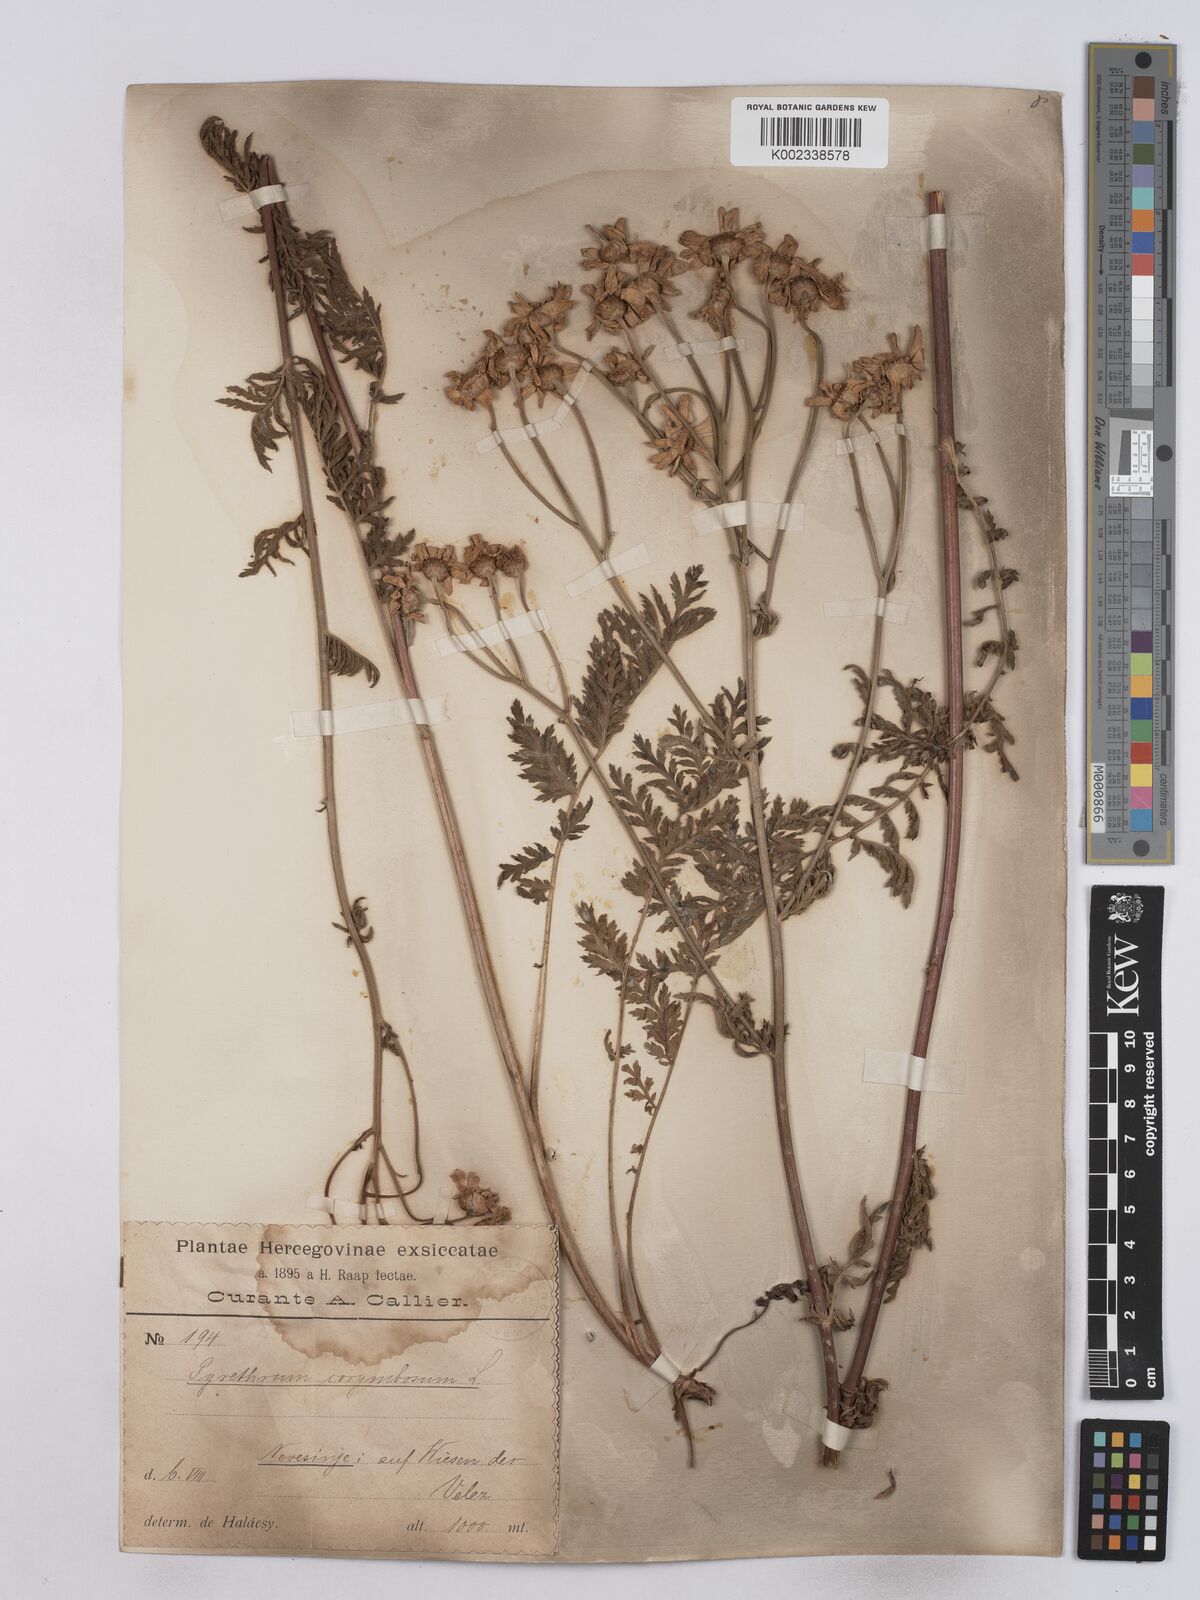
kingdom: Plantae
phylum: Tracheophyta
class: Magnoliopsida
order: Asterales
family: Asteraceae
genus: Tanacetum
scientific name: Tanacetum corymbosum
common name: Scentless feverfew
